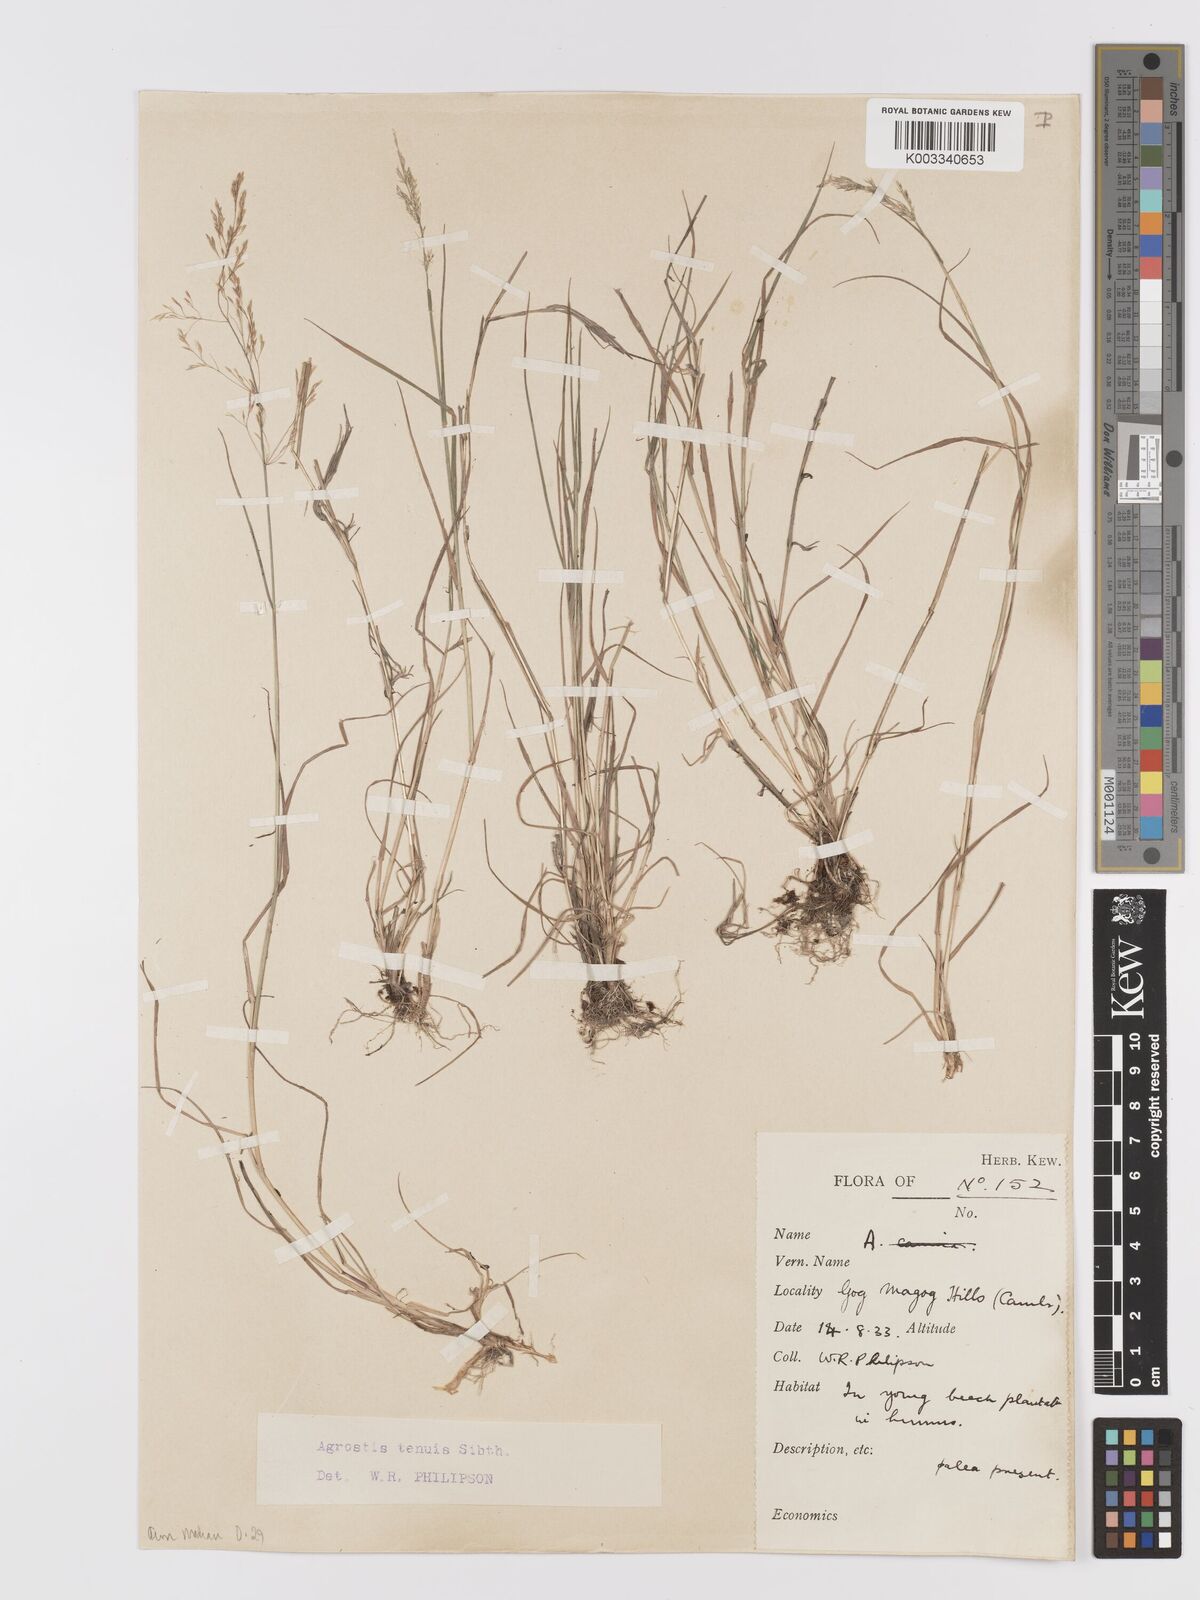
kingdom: Plantae
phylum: Tracheophyta
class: Liliopsida
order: Poales
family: Poaceae
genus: Agrostis
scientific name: Agrostis capillaris
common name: Colonial bentgrass
